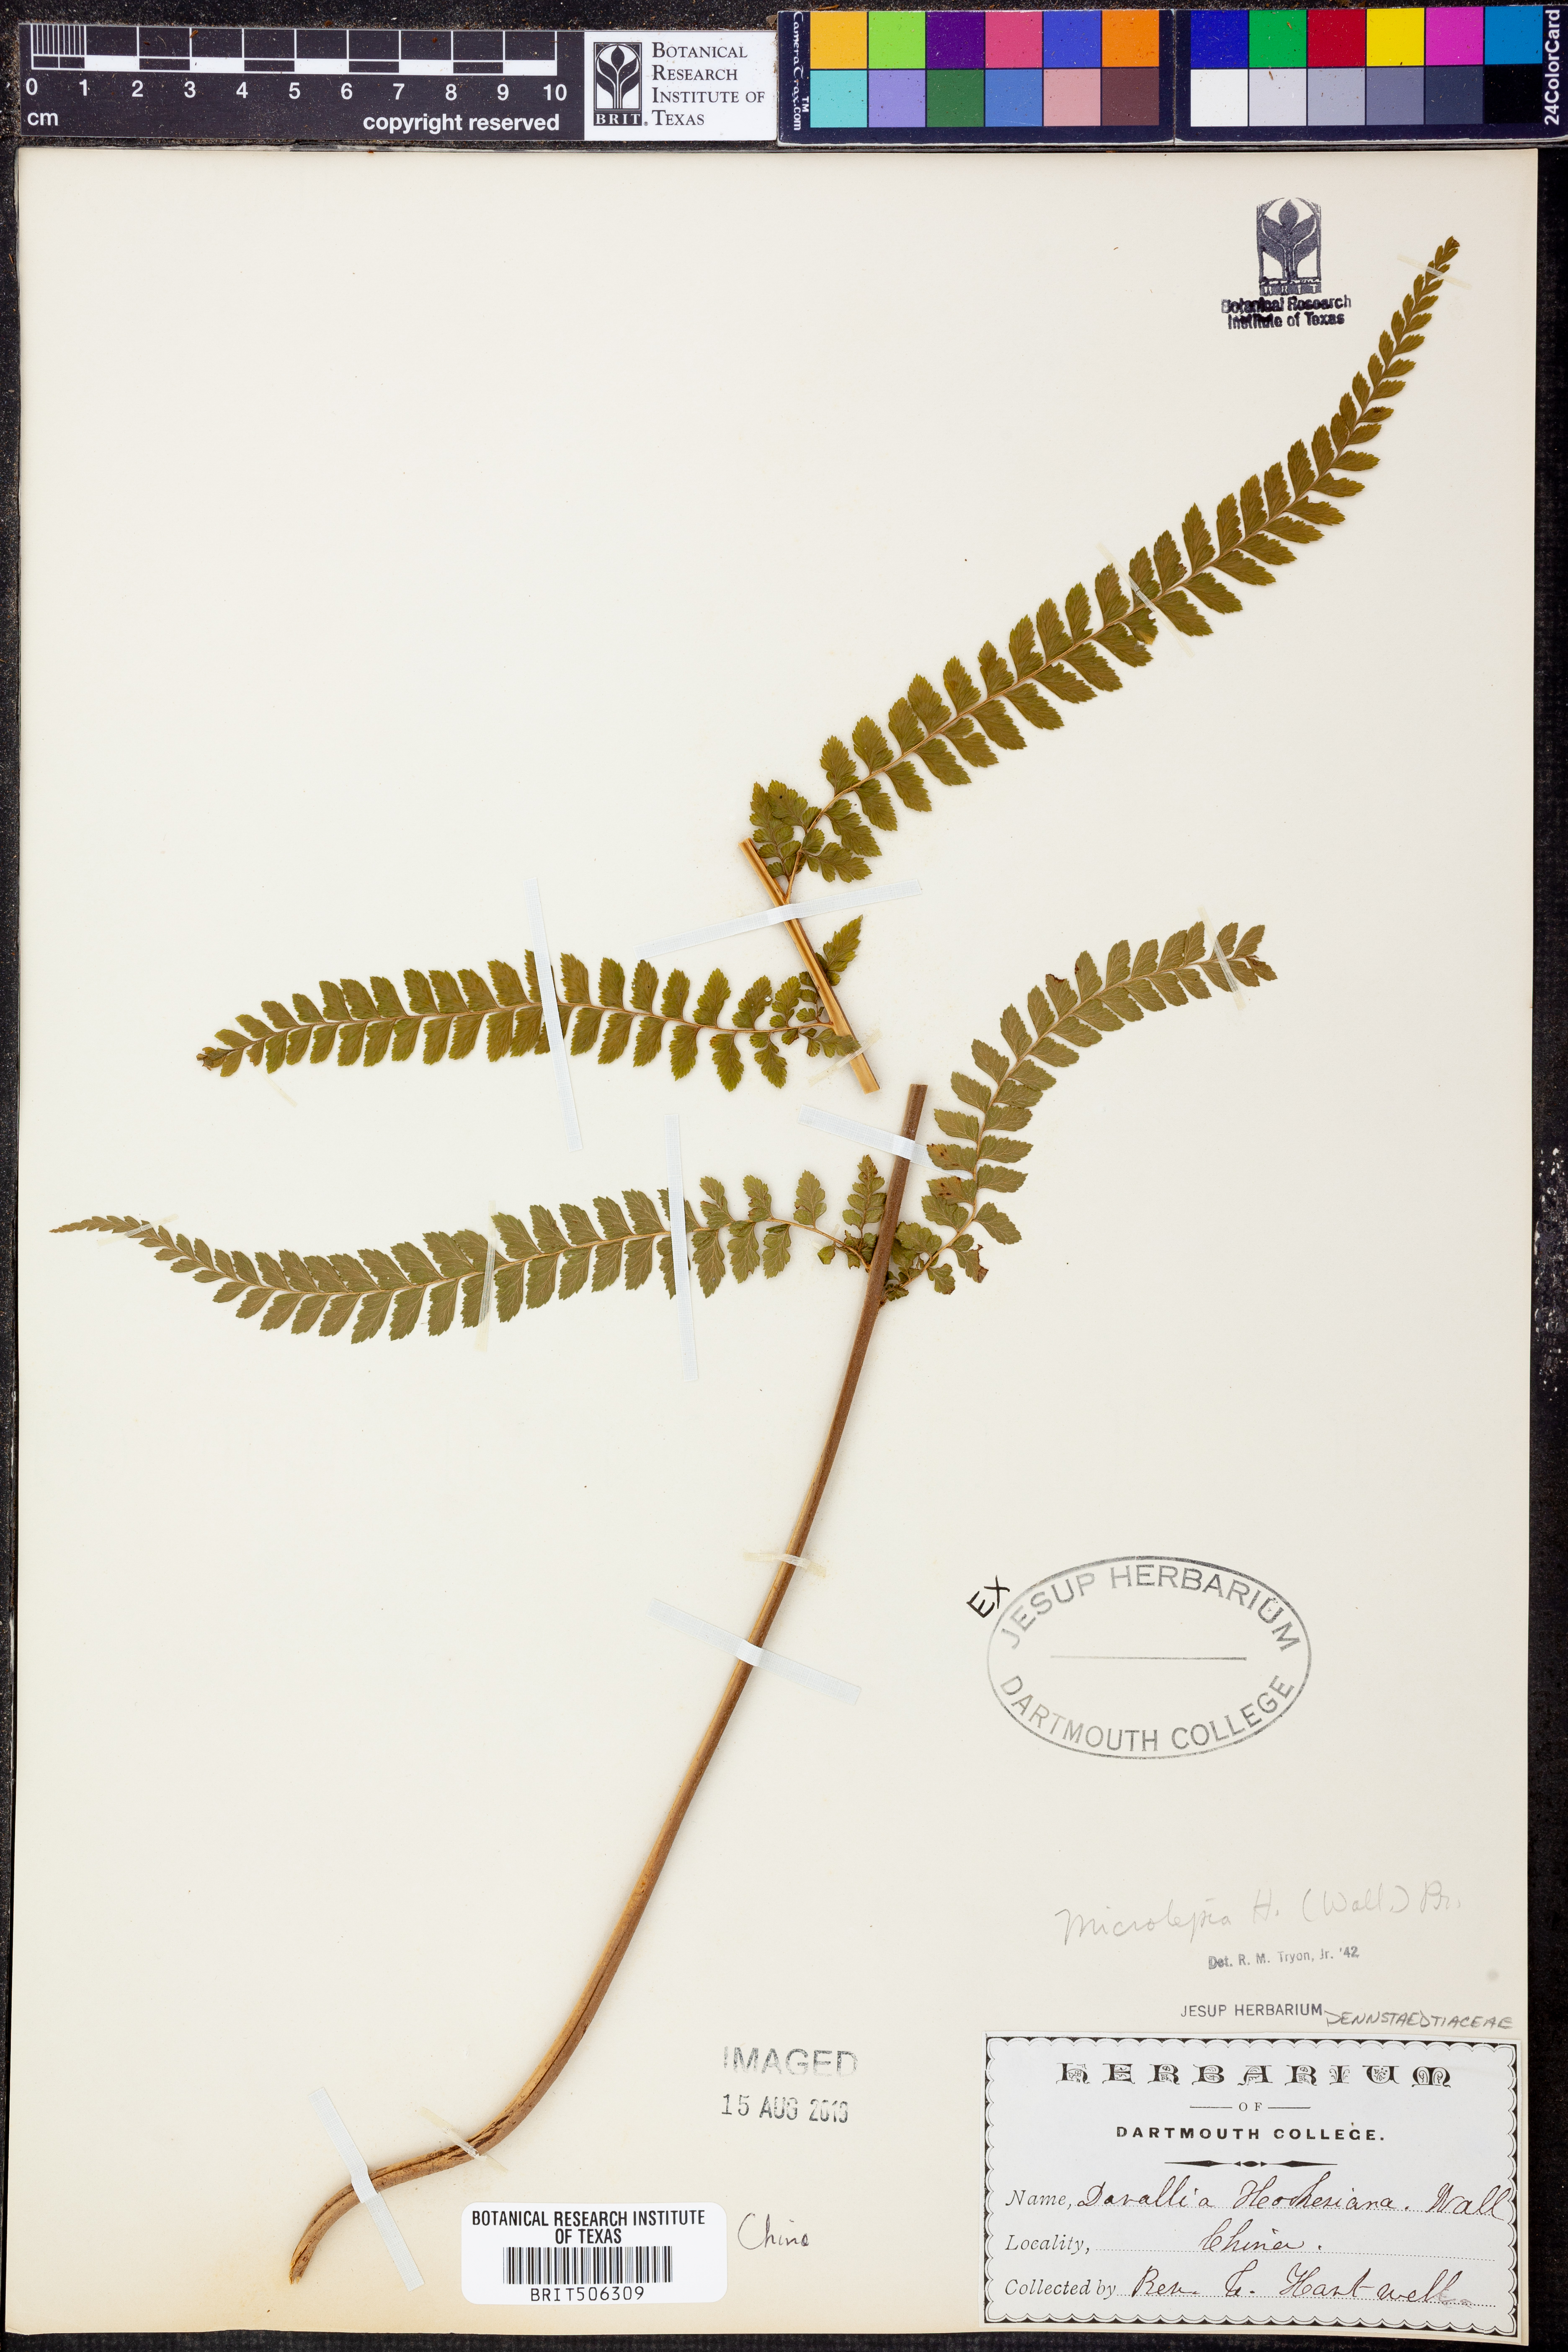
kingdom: Plantae
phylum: Tracheophyta
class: Polypodiopsida
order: Polypodiales
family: Dennstaedtiaceae
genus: Microlepia
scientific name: Microlepia hookeriana
